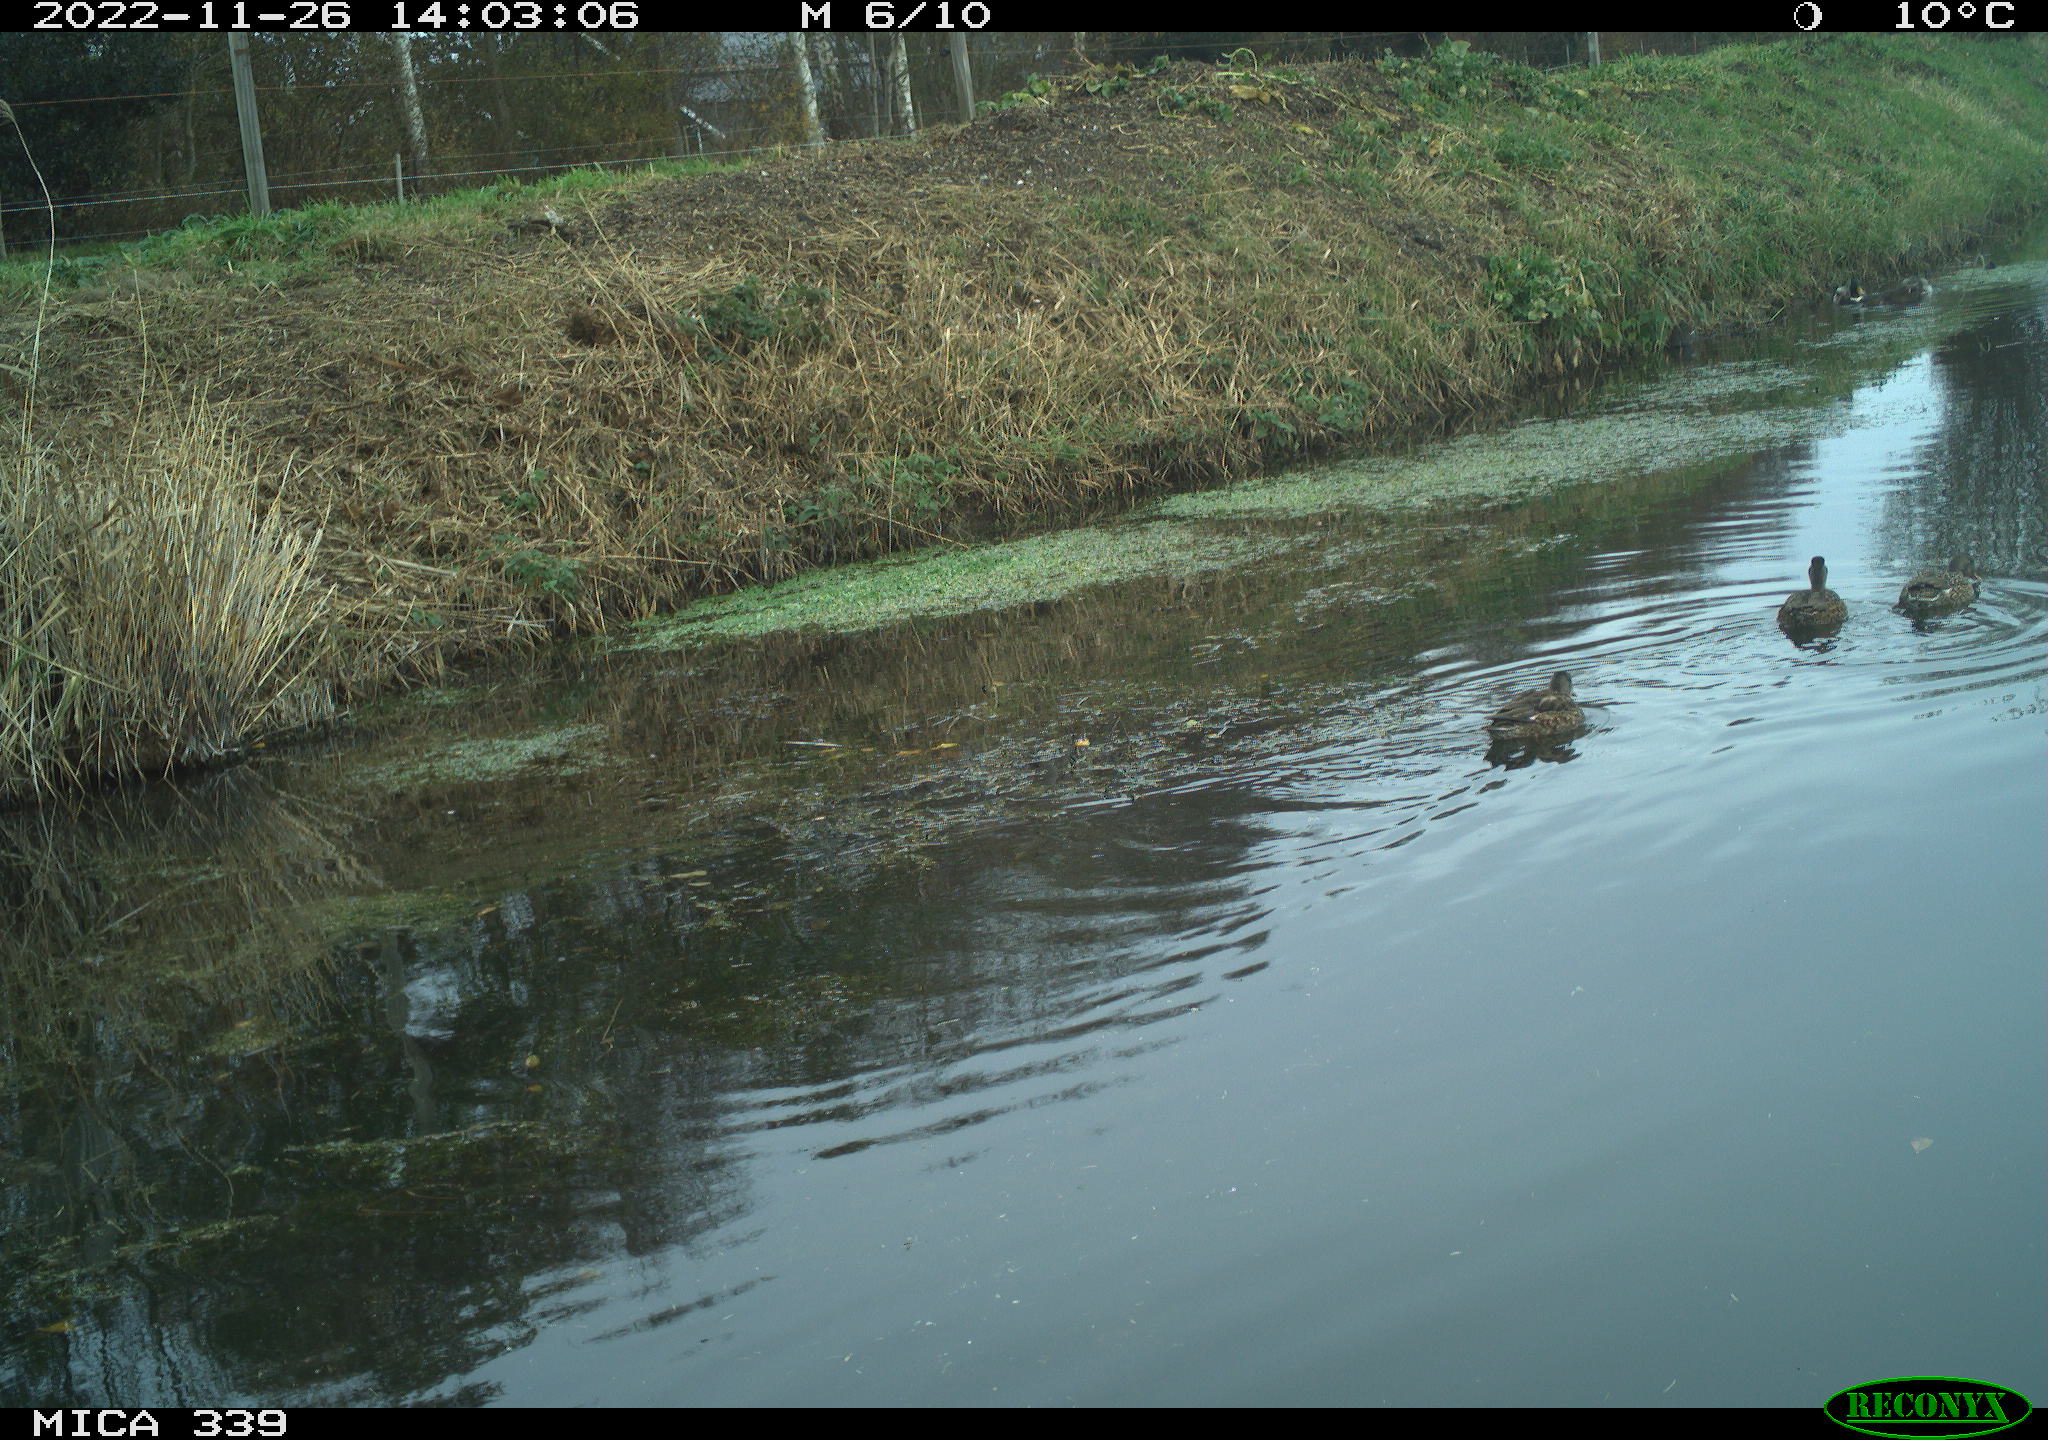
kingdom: Animalia
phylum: Chordata
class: Aves
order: Anseriformes
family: Anatidae
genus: Anas
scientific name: Anas
